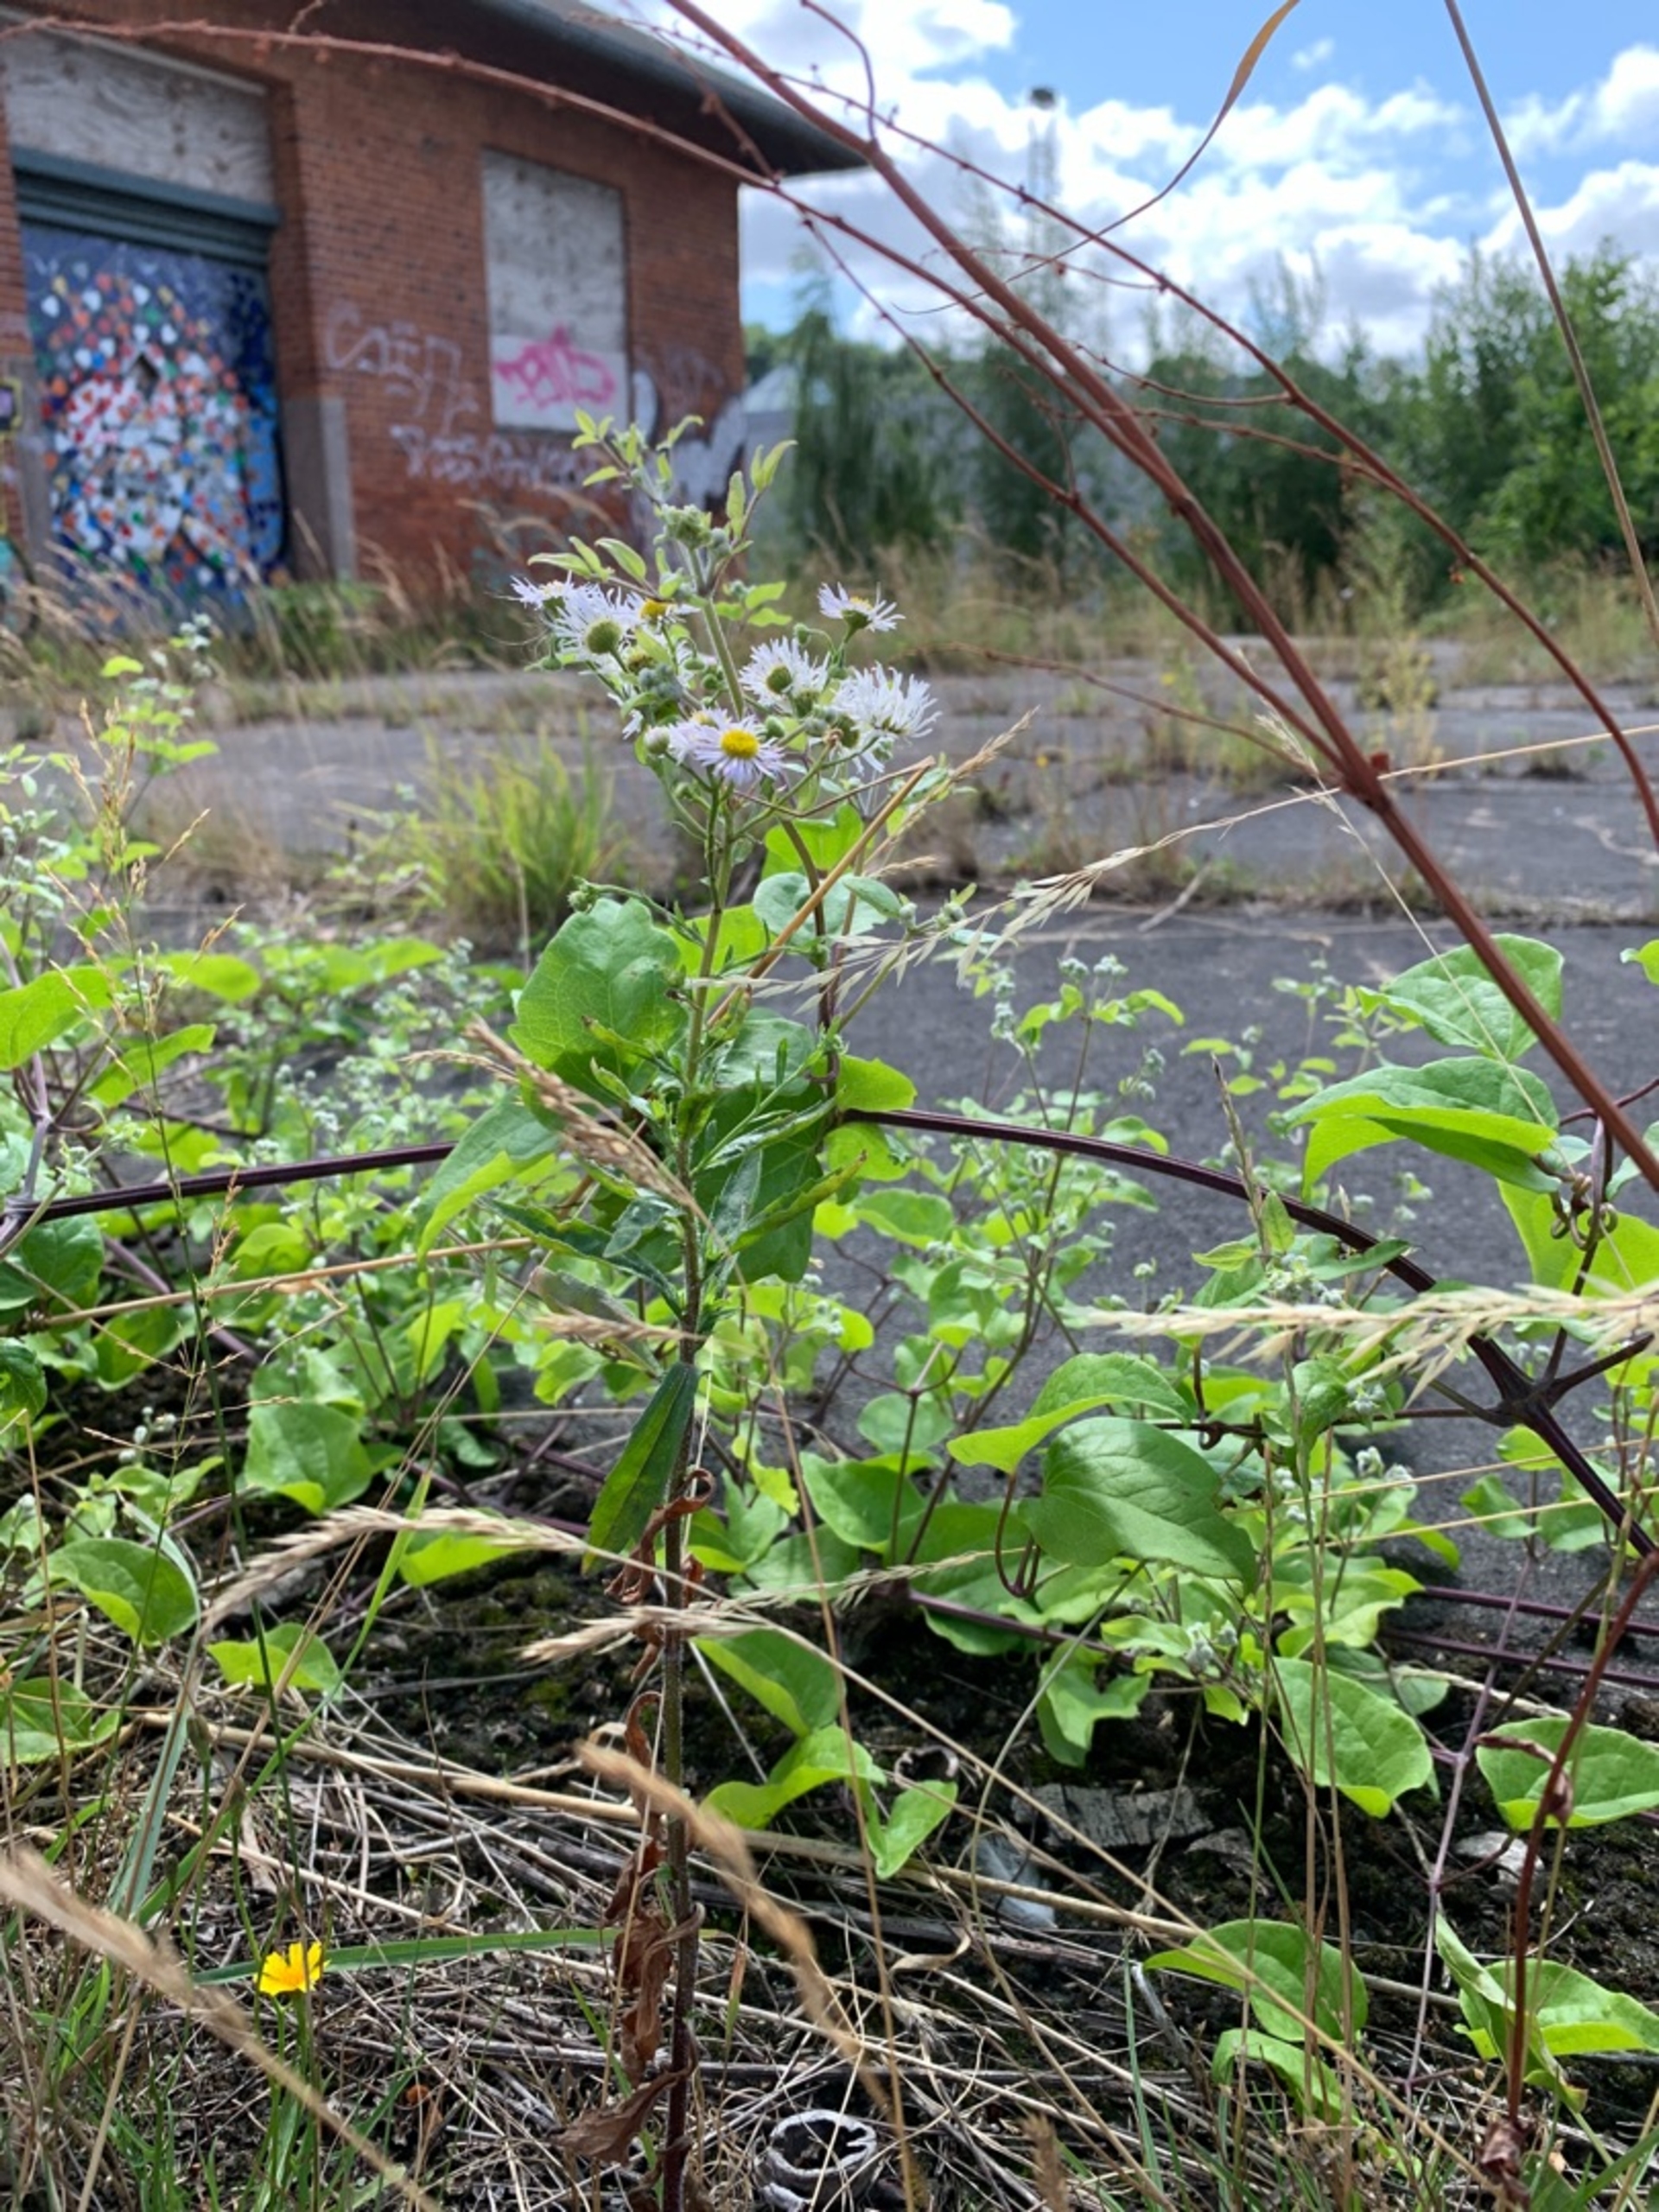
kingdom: Plantae
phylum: Tracheophyta
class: Magnoliopsida
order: Asterales
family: Asteraceae
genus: Erigeron
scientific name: Erigeron annuus
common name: Almindelig smalstråle
